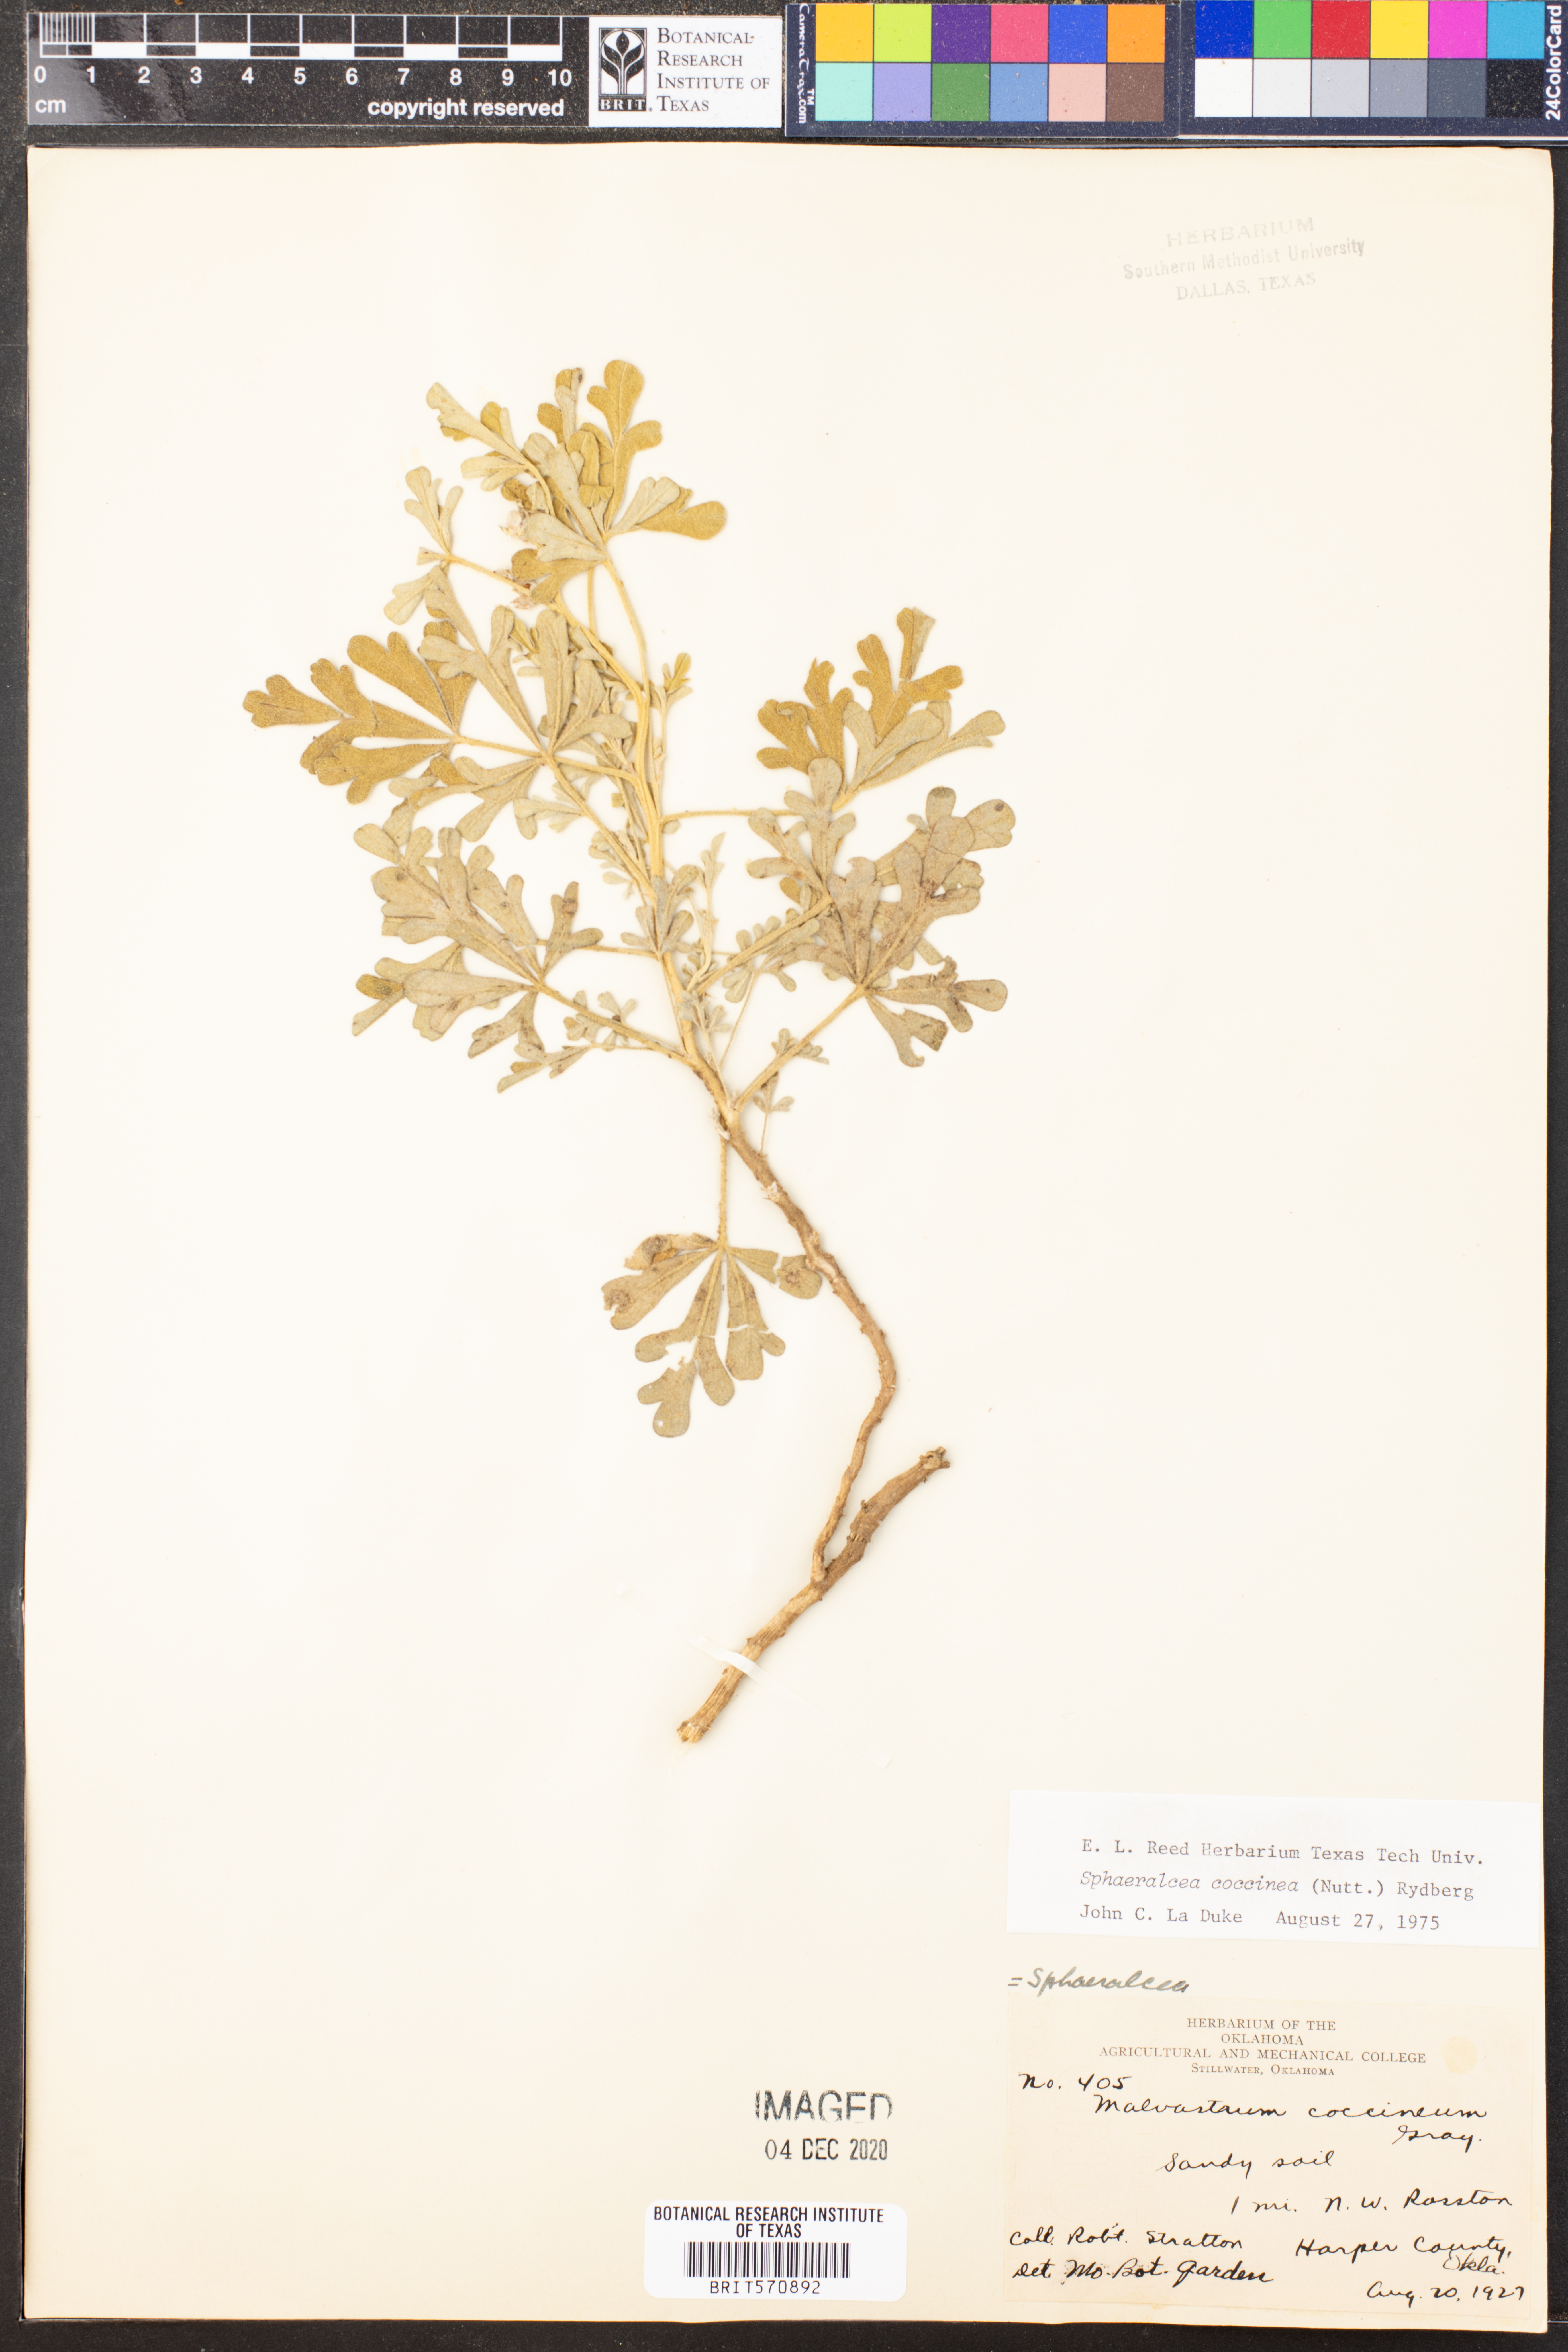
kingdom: Plantae
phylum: Tracheophyta
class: Magnoliopsida
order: Malvales
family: Malvaceae
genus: Sphaeralcea
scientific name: Sphaeralcea coccinea
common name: Moss-rose
